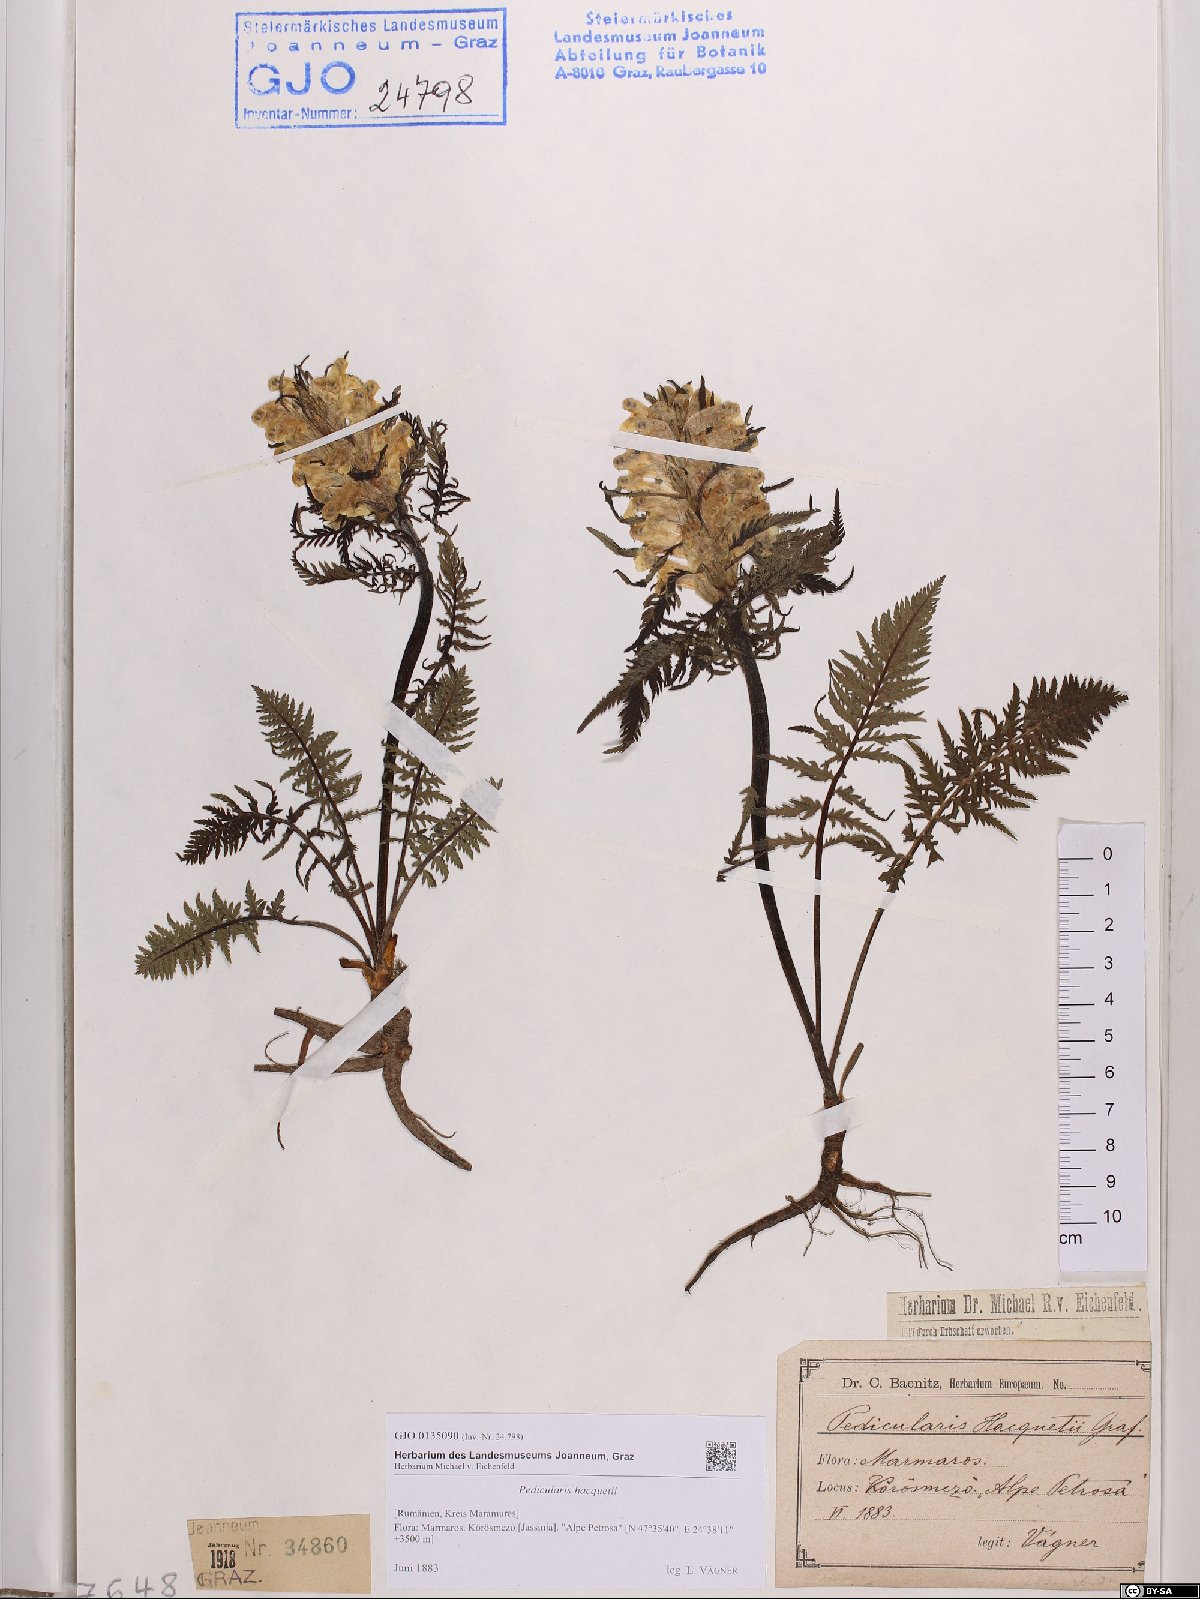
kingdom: Plantae
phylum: Tracheophyta
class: Magnoliopsida
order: Lamiales
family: Orobanchaceae
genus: Pedicularis
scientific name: Pedicularis hacquetii
